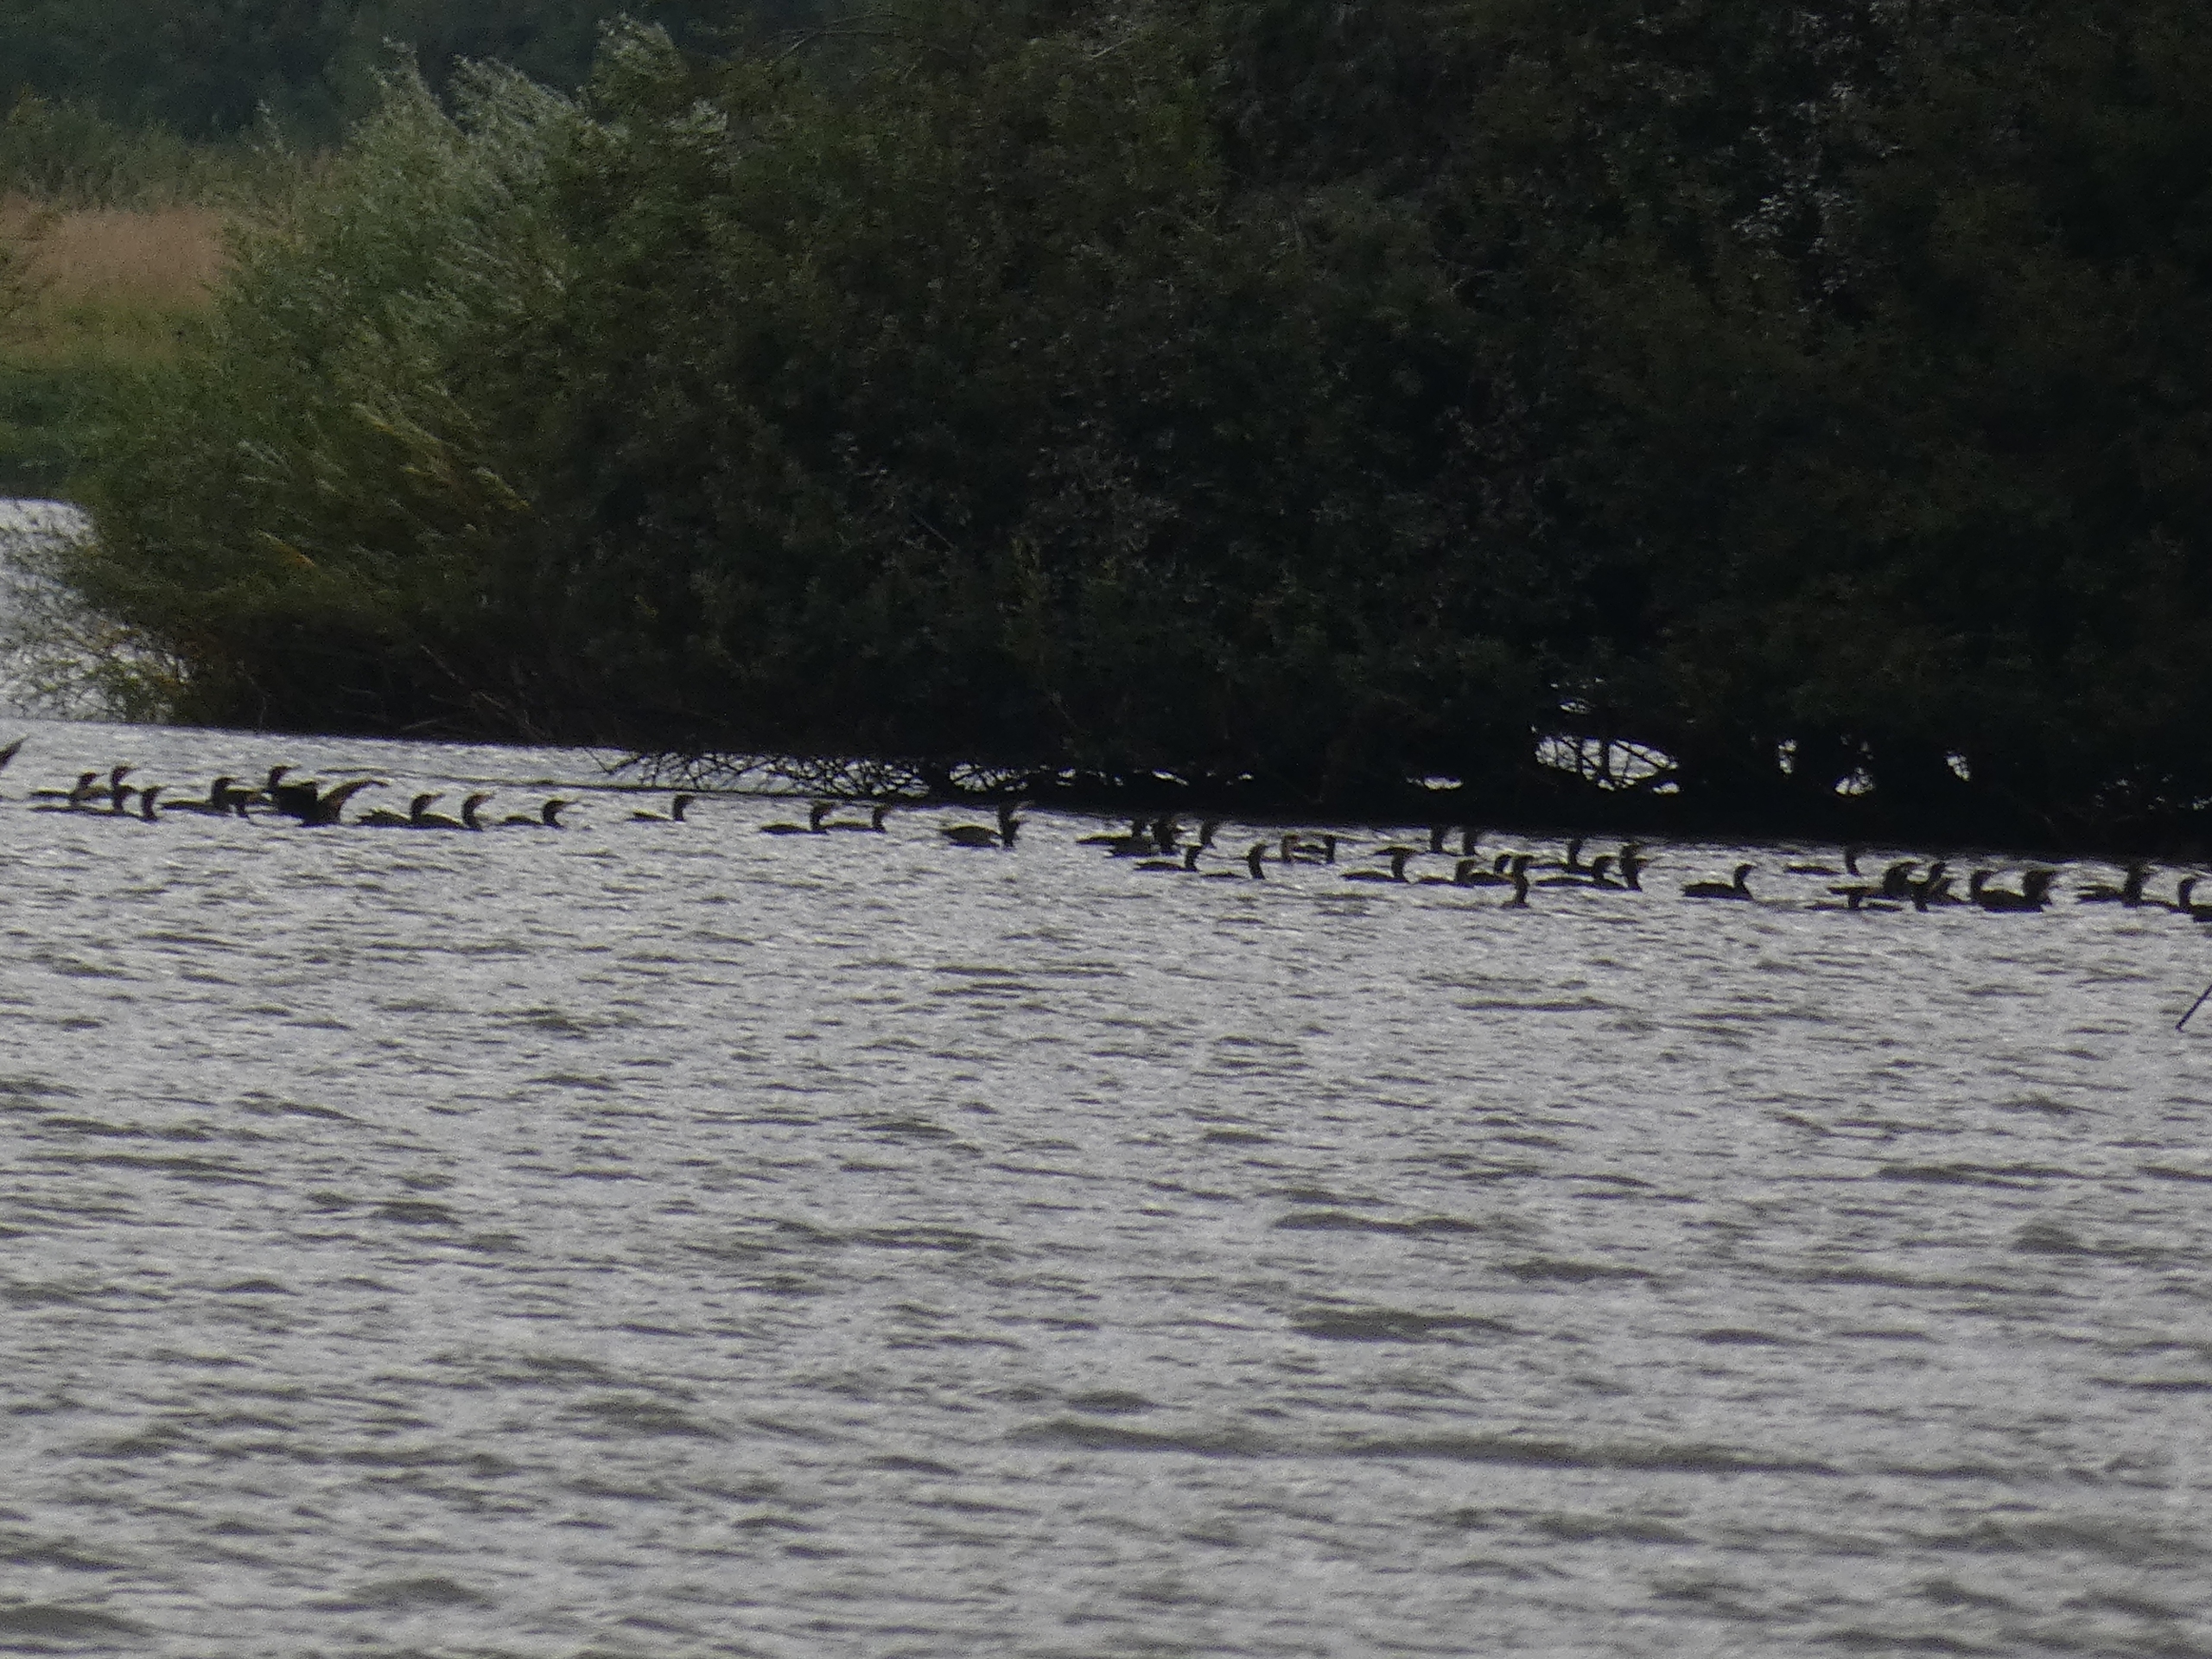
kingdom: Animalia
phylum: Chordata
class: Aves
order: Suliformes
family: Phalacrocoracidae
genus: Phalacrocorax
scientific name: Phalacrocorax carbo
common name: Skarv
